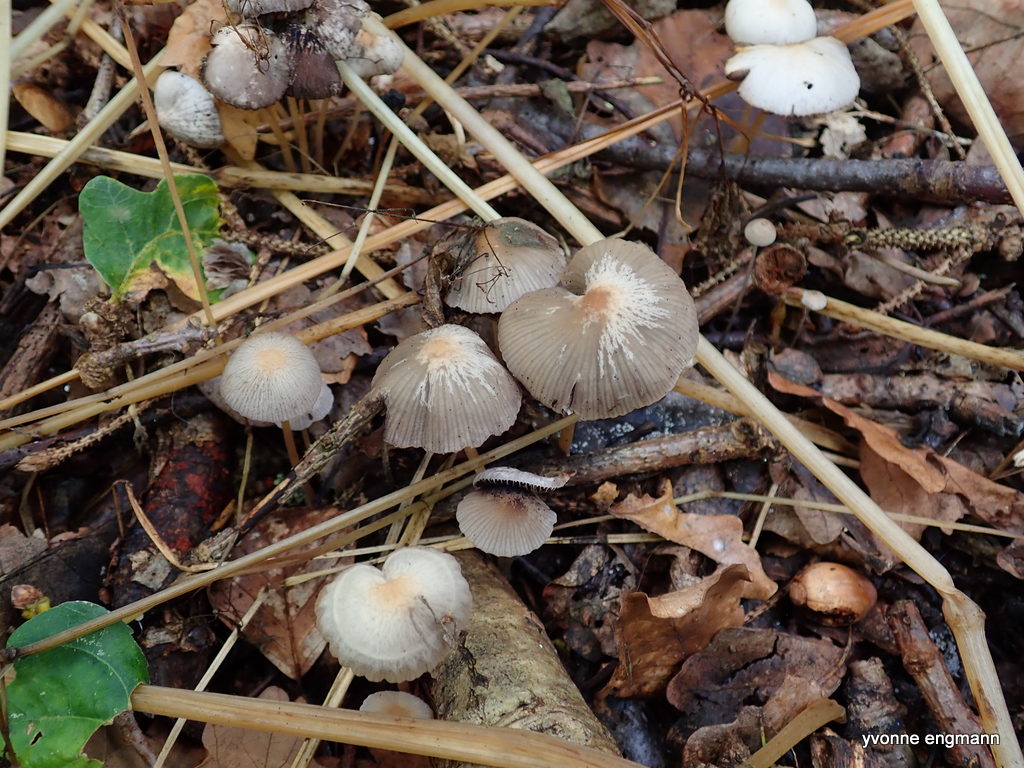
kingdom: Fungi
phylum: Basidiomycota
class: Agaricomycetes
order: Agaricales
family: Psathyrellaceae
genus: Psathyrella
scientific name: Psathyrella
